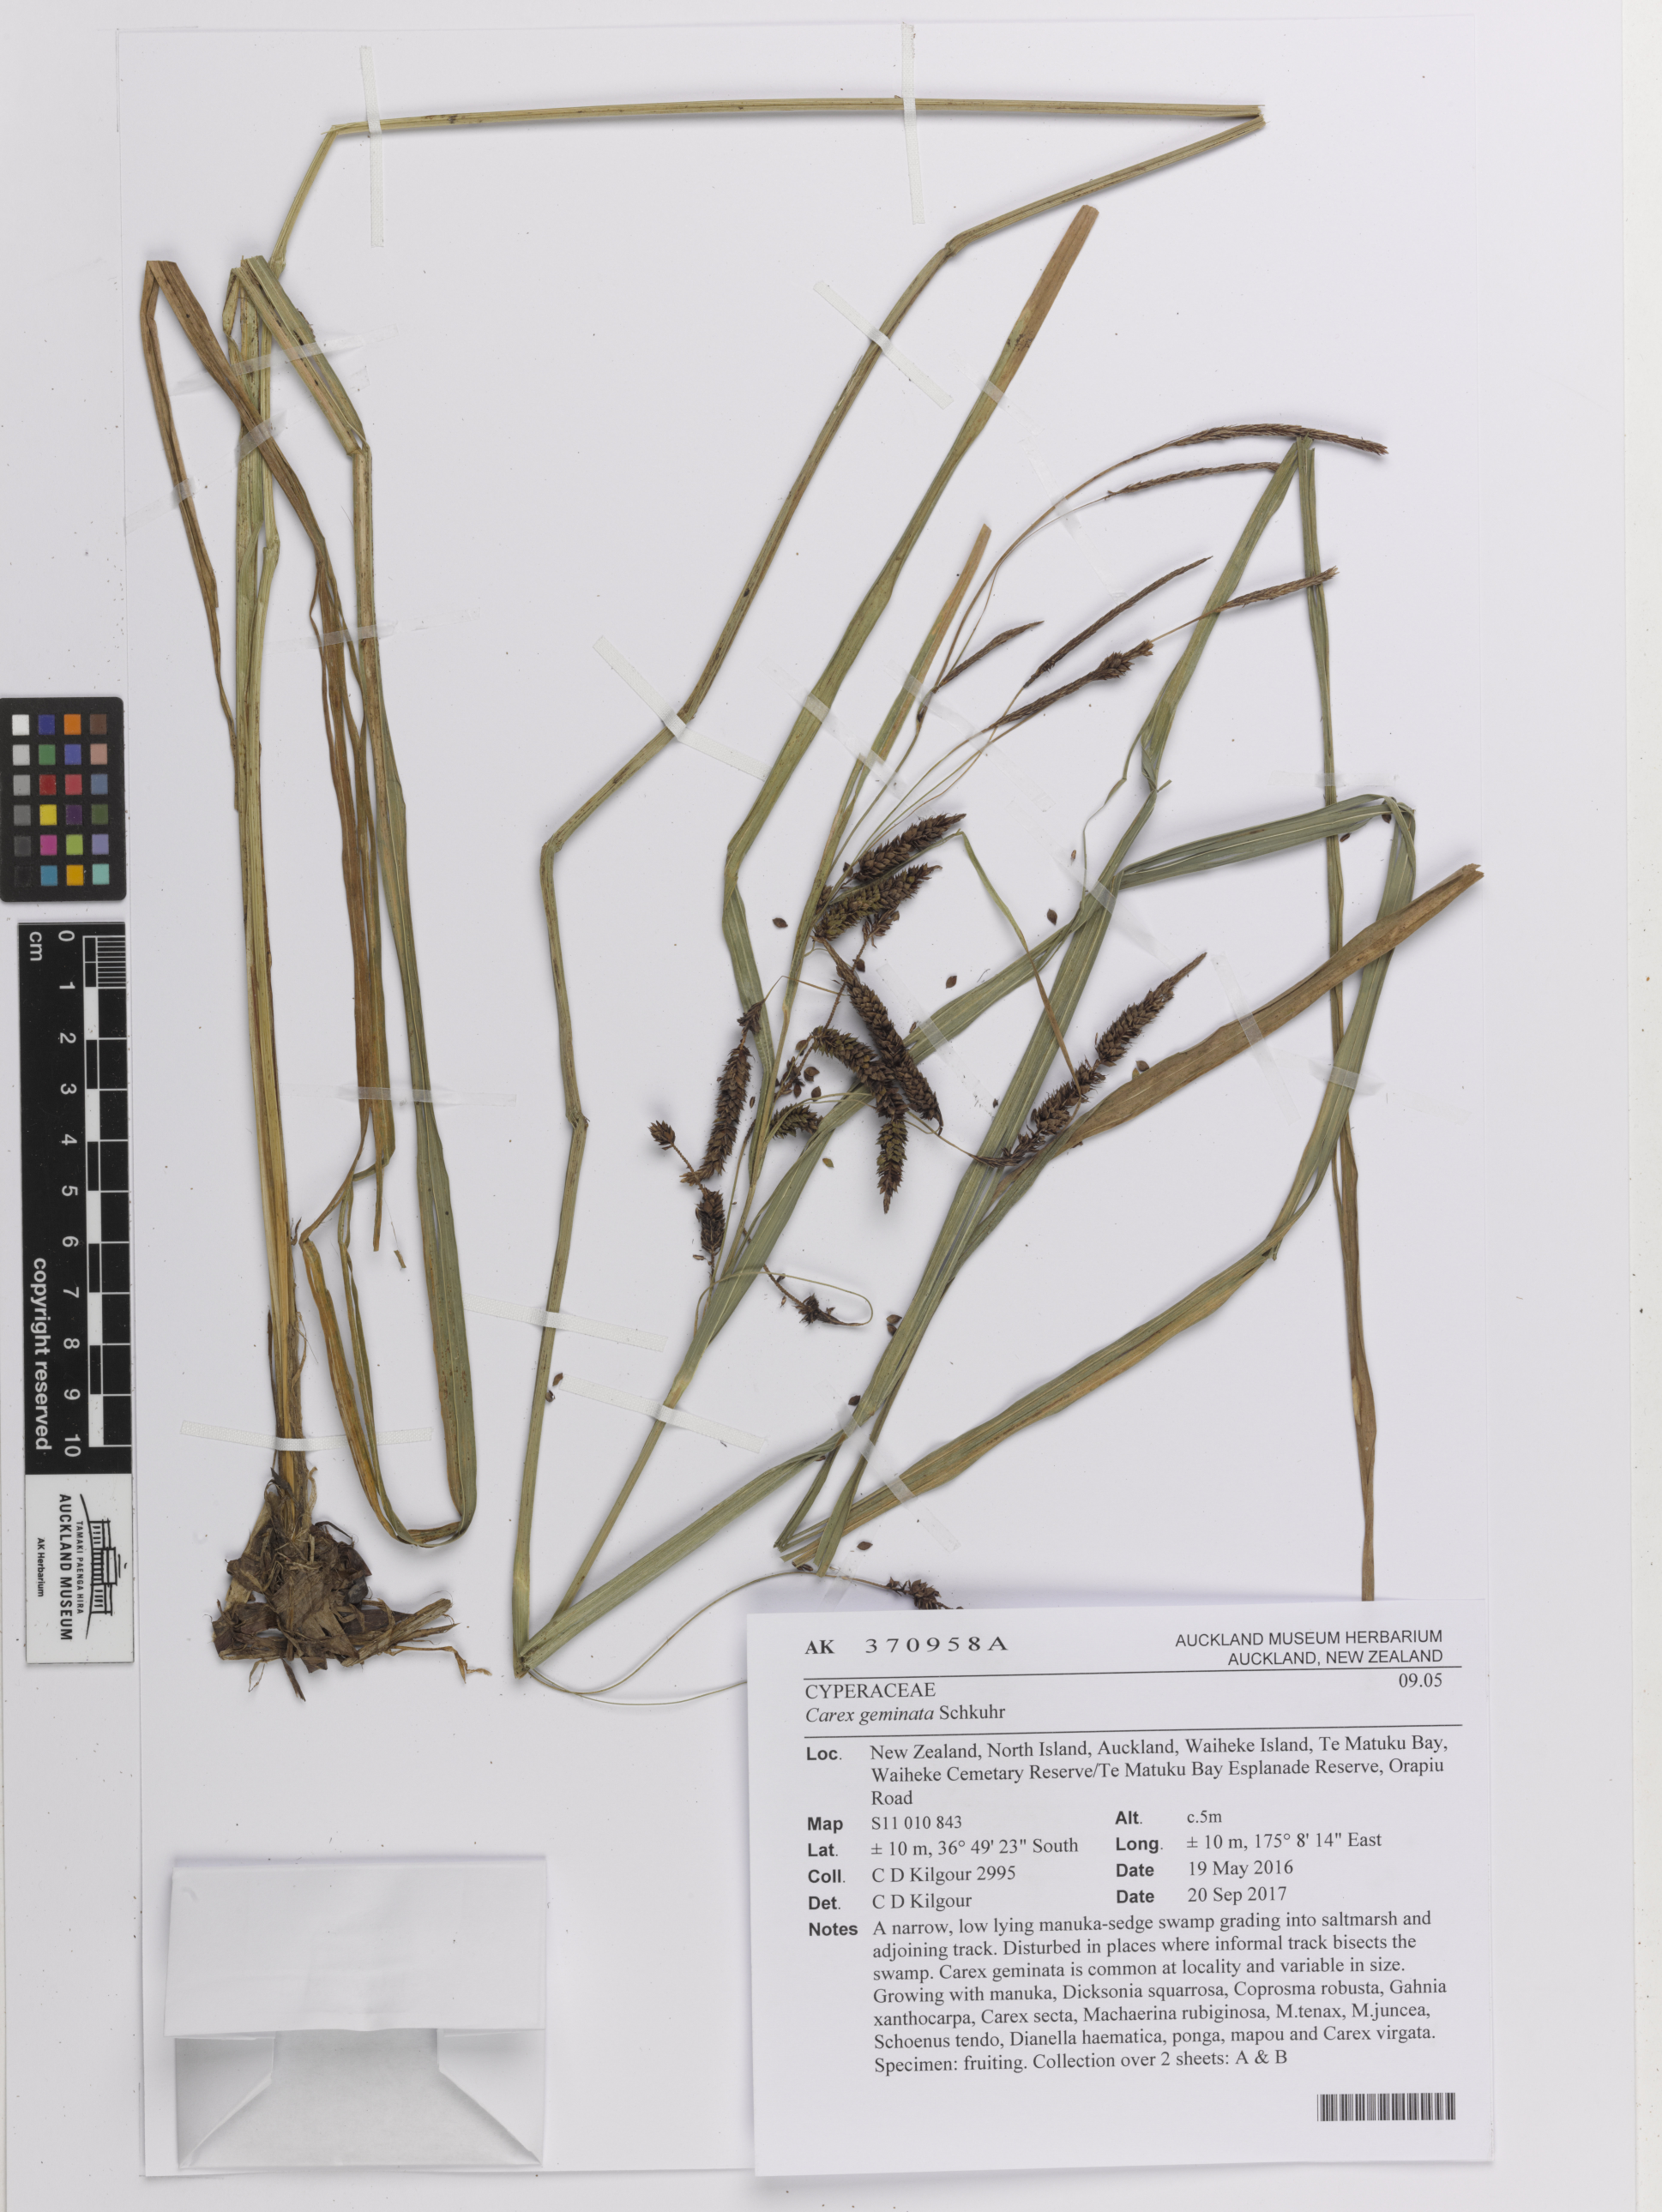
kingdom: Plantae
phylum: Tracheophyta
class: Liliopsida
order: Poales
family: Cyperaceae
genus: Carex
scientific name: Carex geminata
